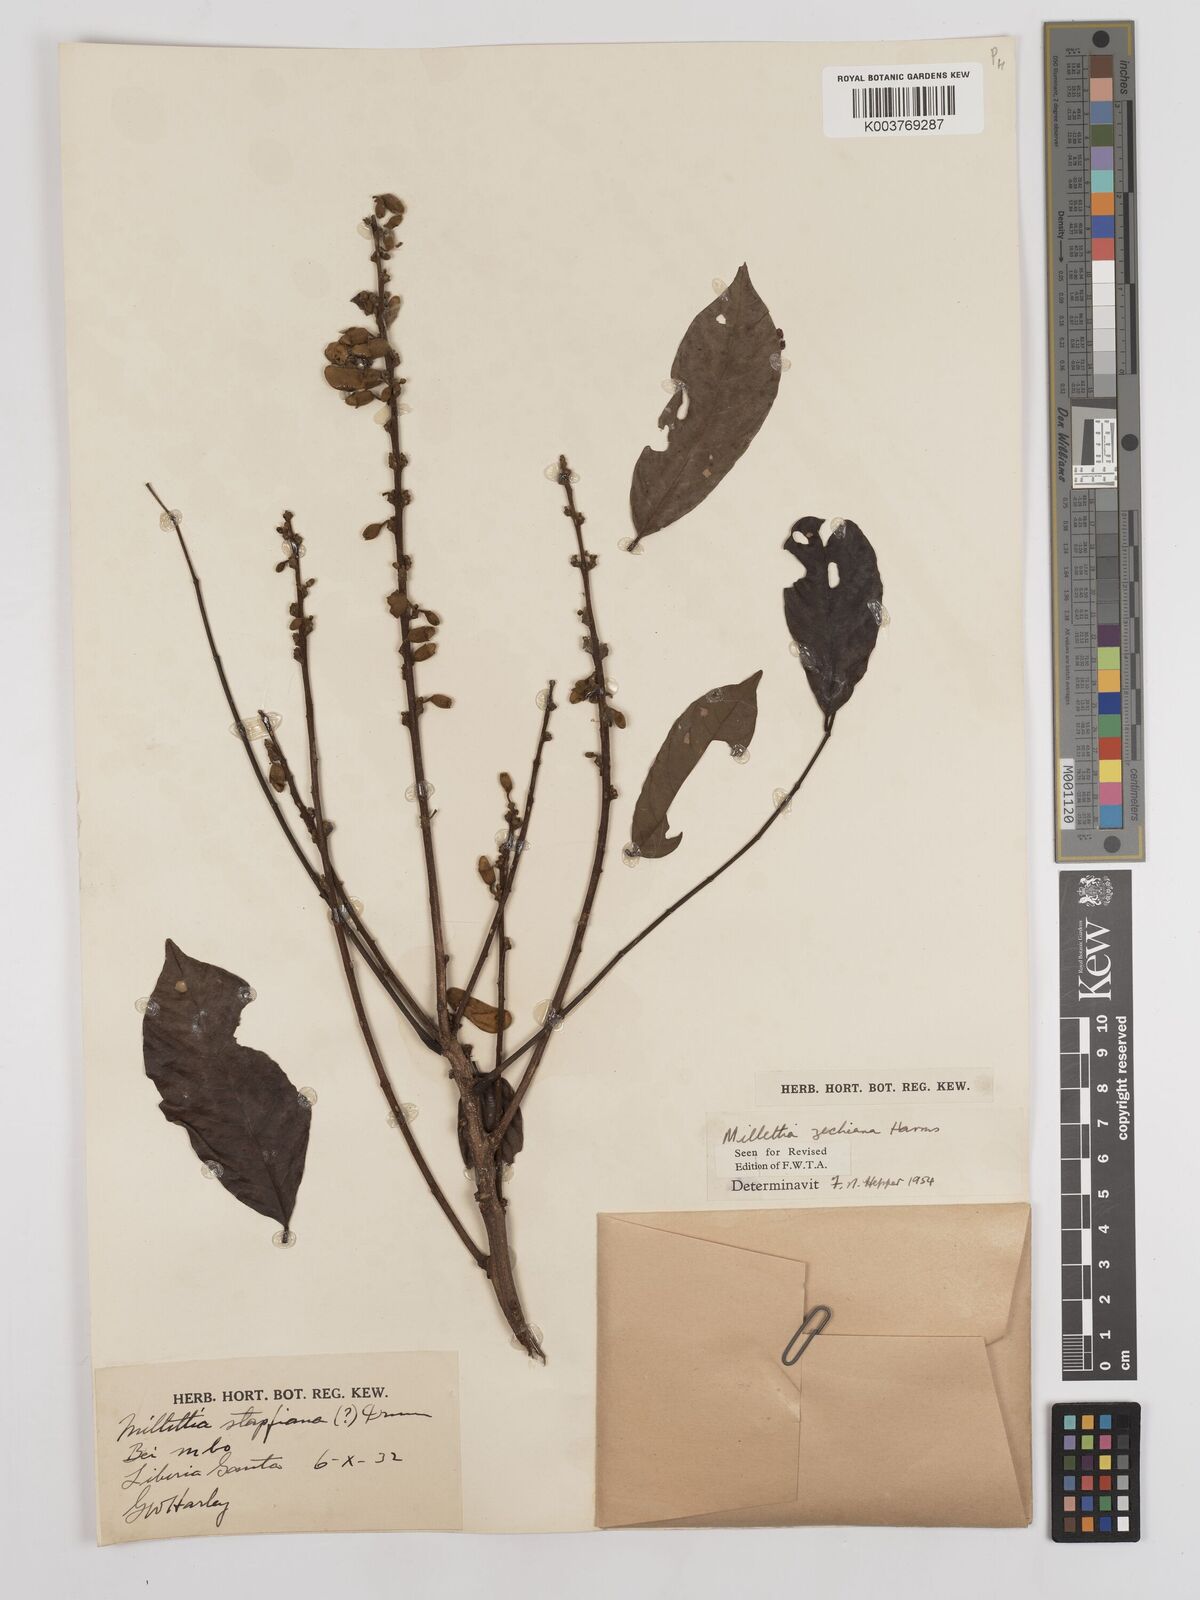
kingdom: Plantae
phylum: Tracheophyta
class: Magnoliopsida
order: Fabales
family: Fabaceae
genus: Millettia
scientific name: Millettia zechiana
